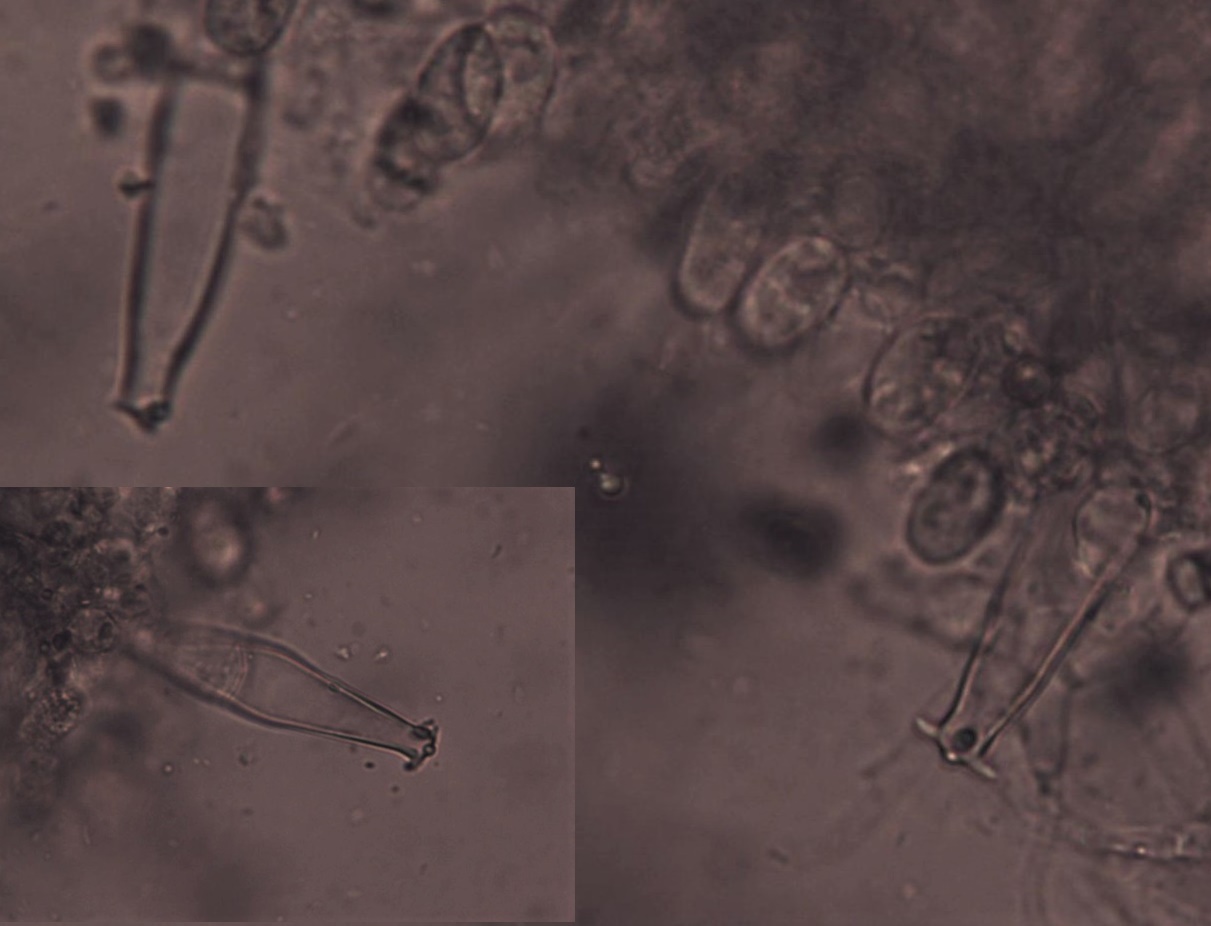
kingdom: Fungi
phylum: Basidiomycota
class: Agaricomycetes
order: Agaricales
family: Pluteaceae
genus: Pluteus
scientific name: Pluteus salicinus
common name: stiv skærmhat
